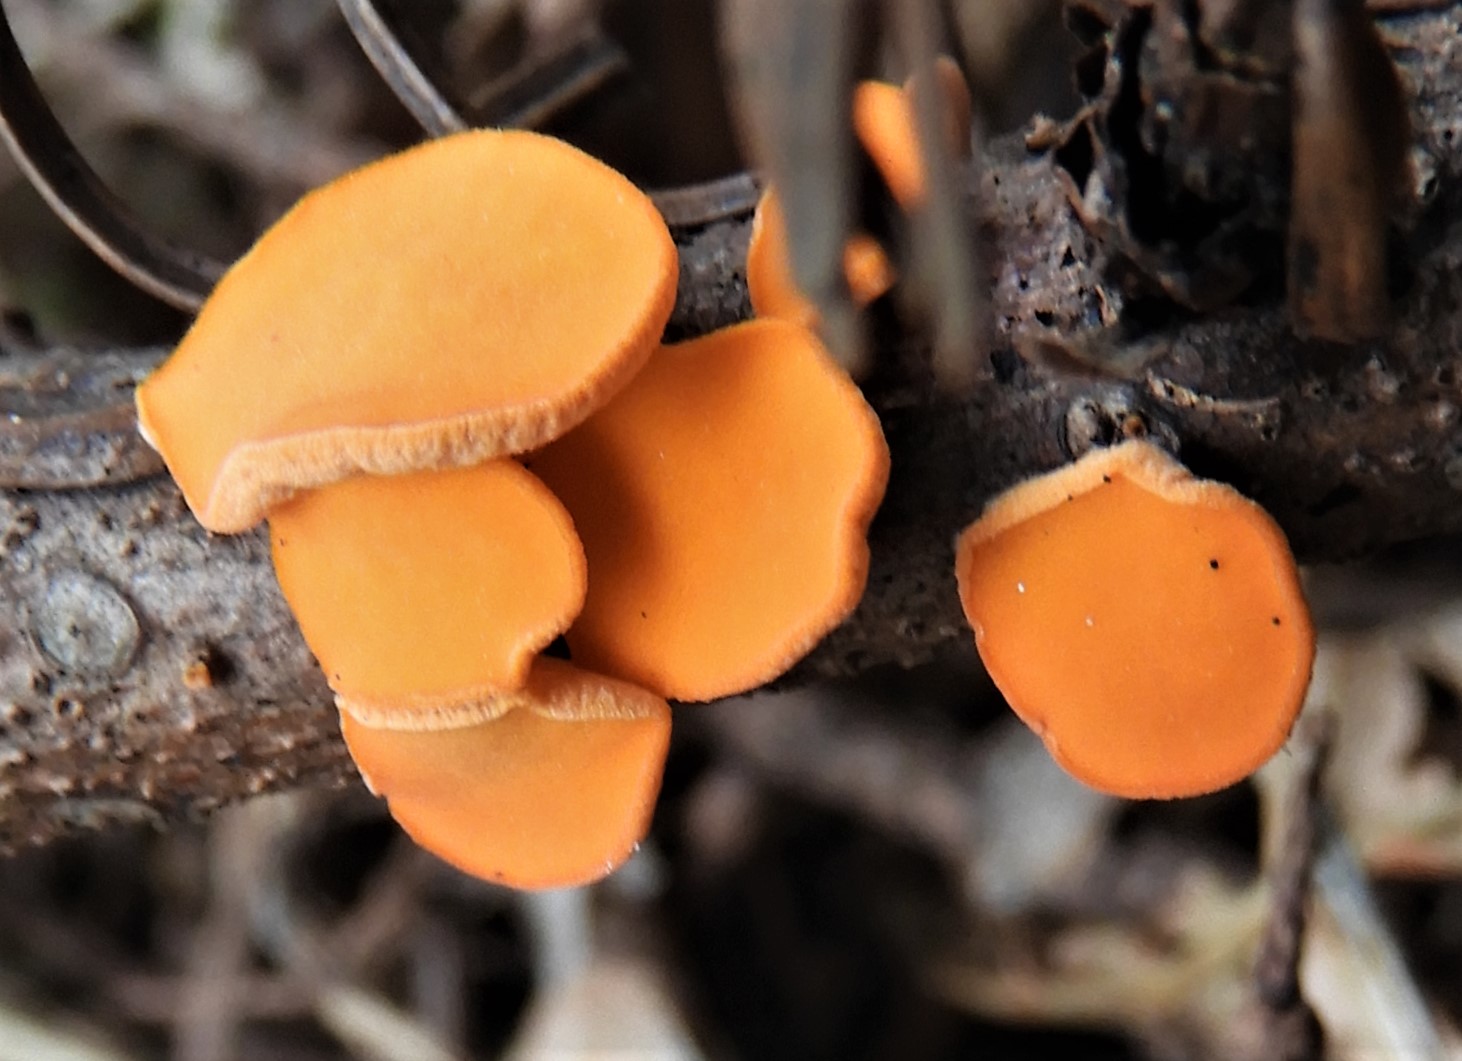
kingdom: Fungi
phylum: Ascomycota
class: Pezizomycetes
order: Pezizales
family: Sarcoscyphaceae
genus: Pithya
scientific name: Pithya vulgaris
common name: stor dukatbæger
